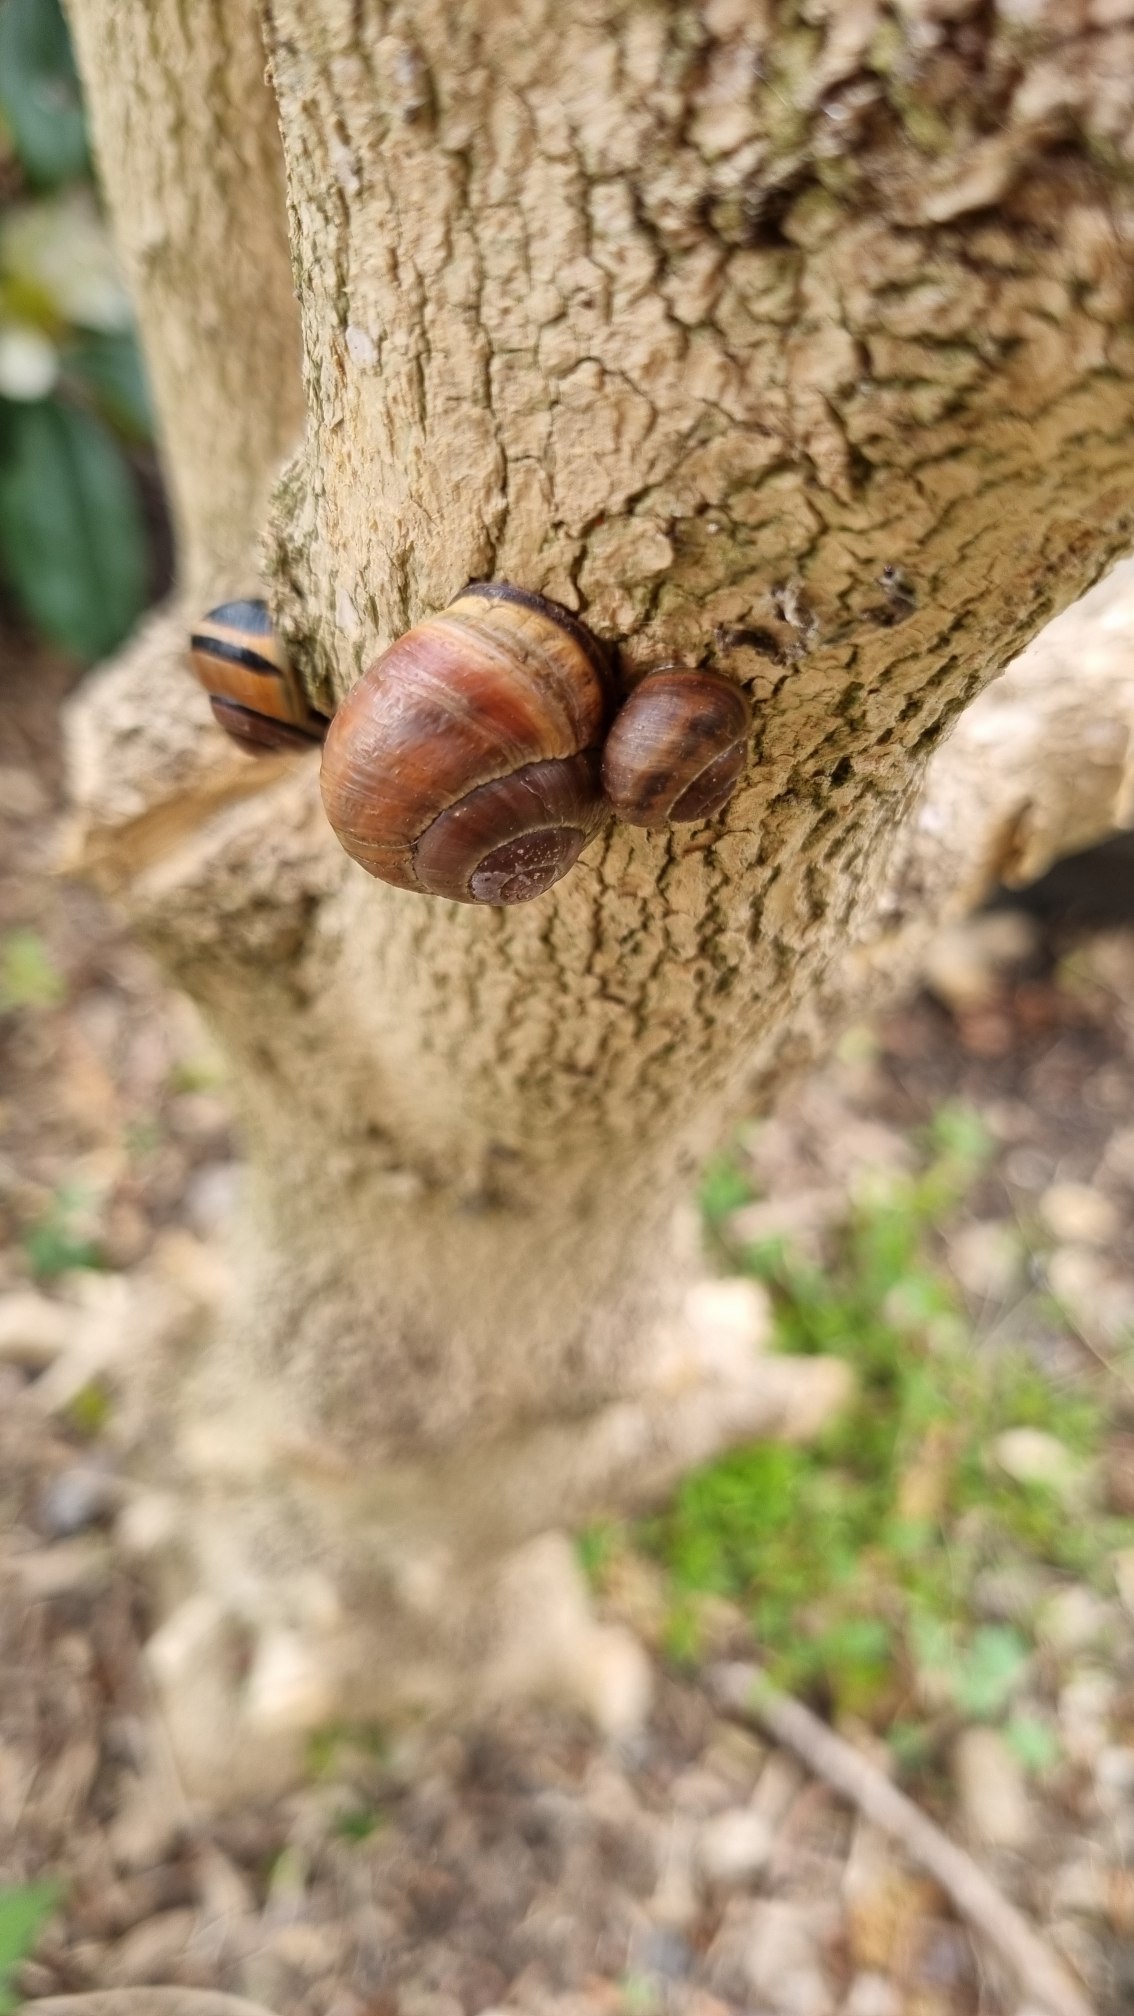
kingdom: Animalia
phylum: Mollusca
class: Gastropoda
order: Stylommatophora
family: Helicidae
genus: Cepaea
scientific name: Cepaea nemoralis
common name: Lundsnegl
